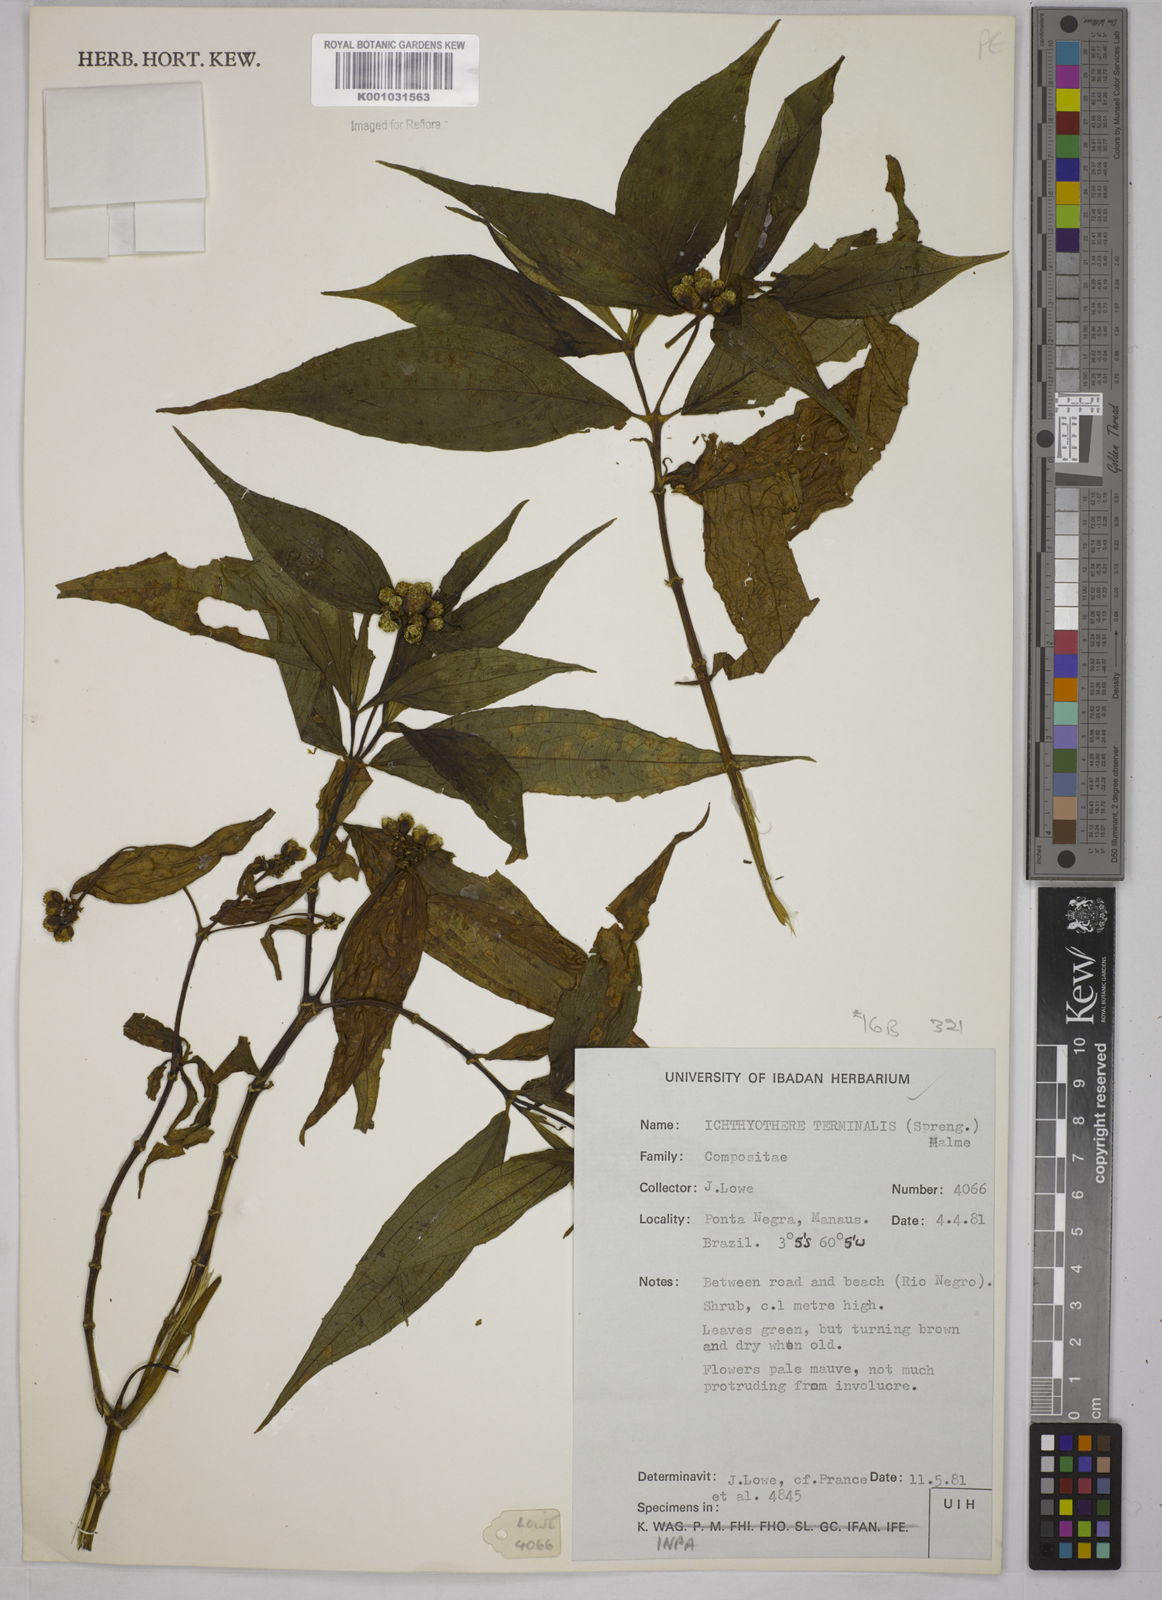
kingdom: Plantae
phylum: Tracheophyta
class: Magnoliopsida
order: Asterales
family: Asteraceae
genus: Ichthyothere
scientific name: Ichthyothere cunabi
